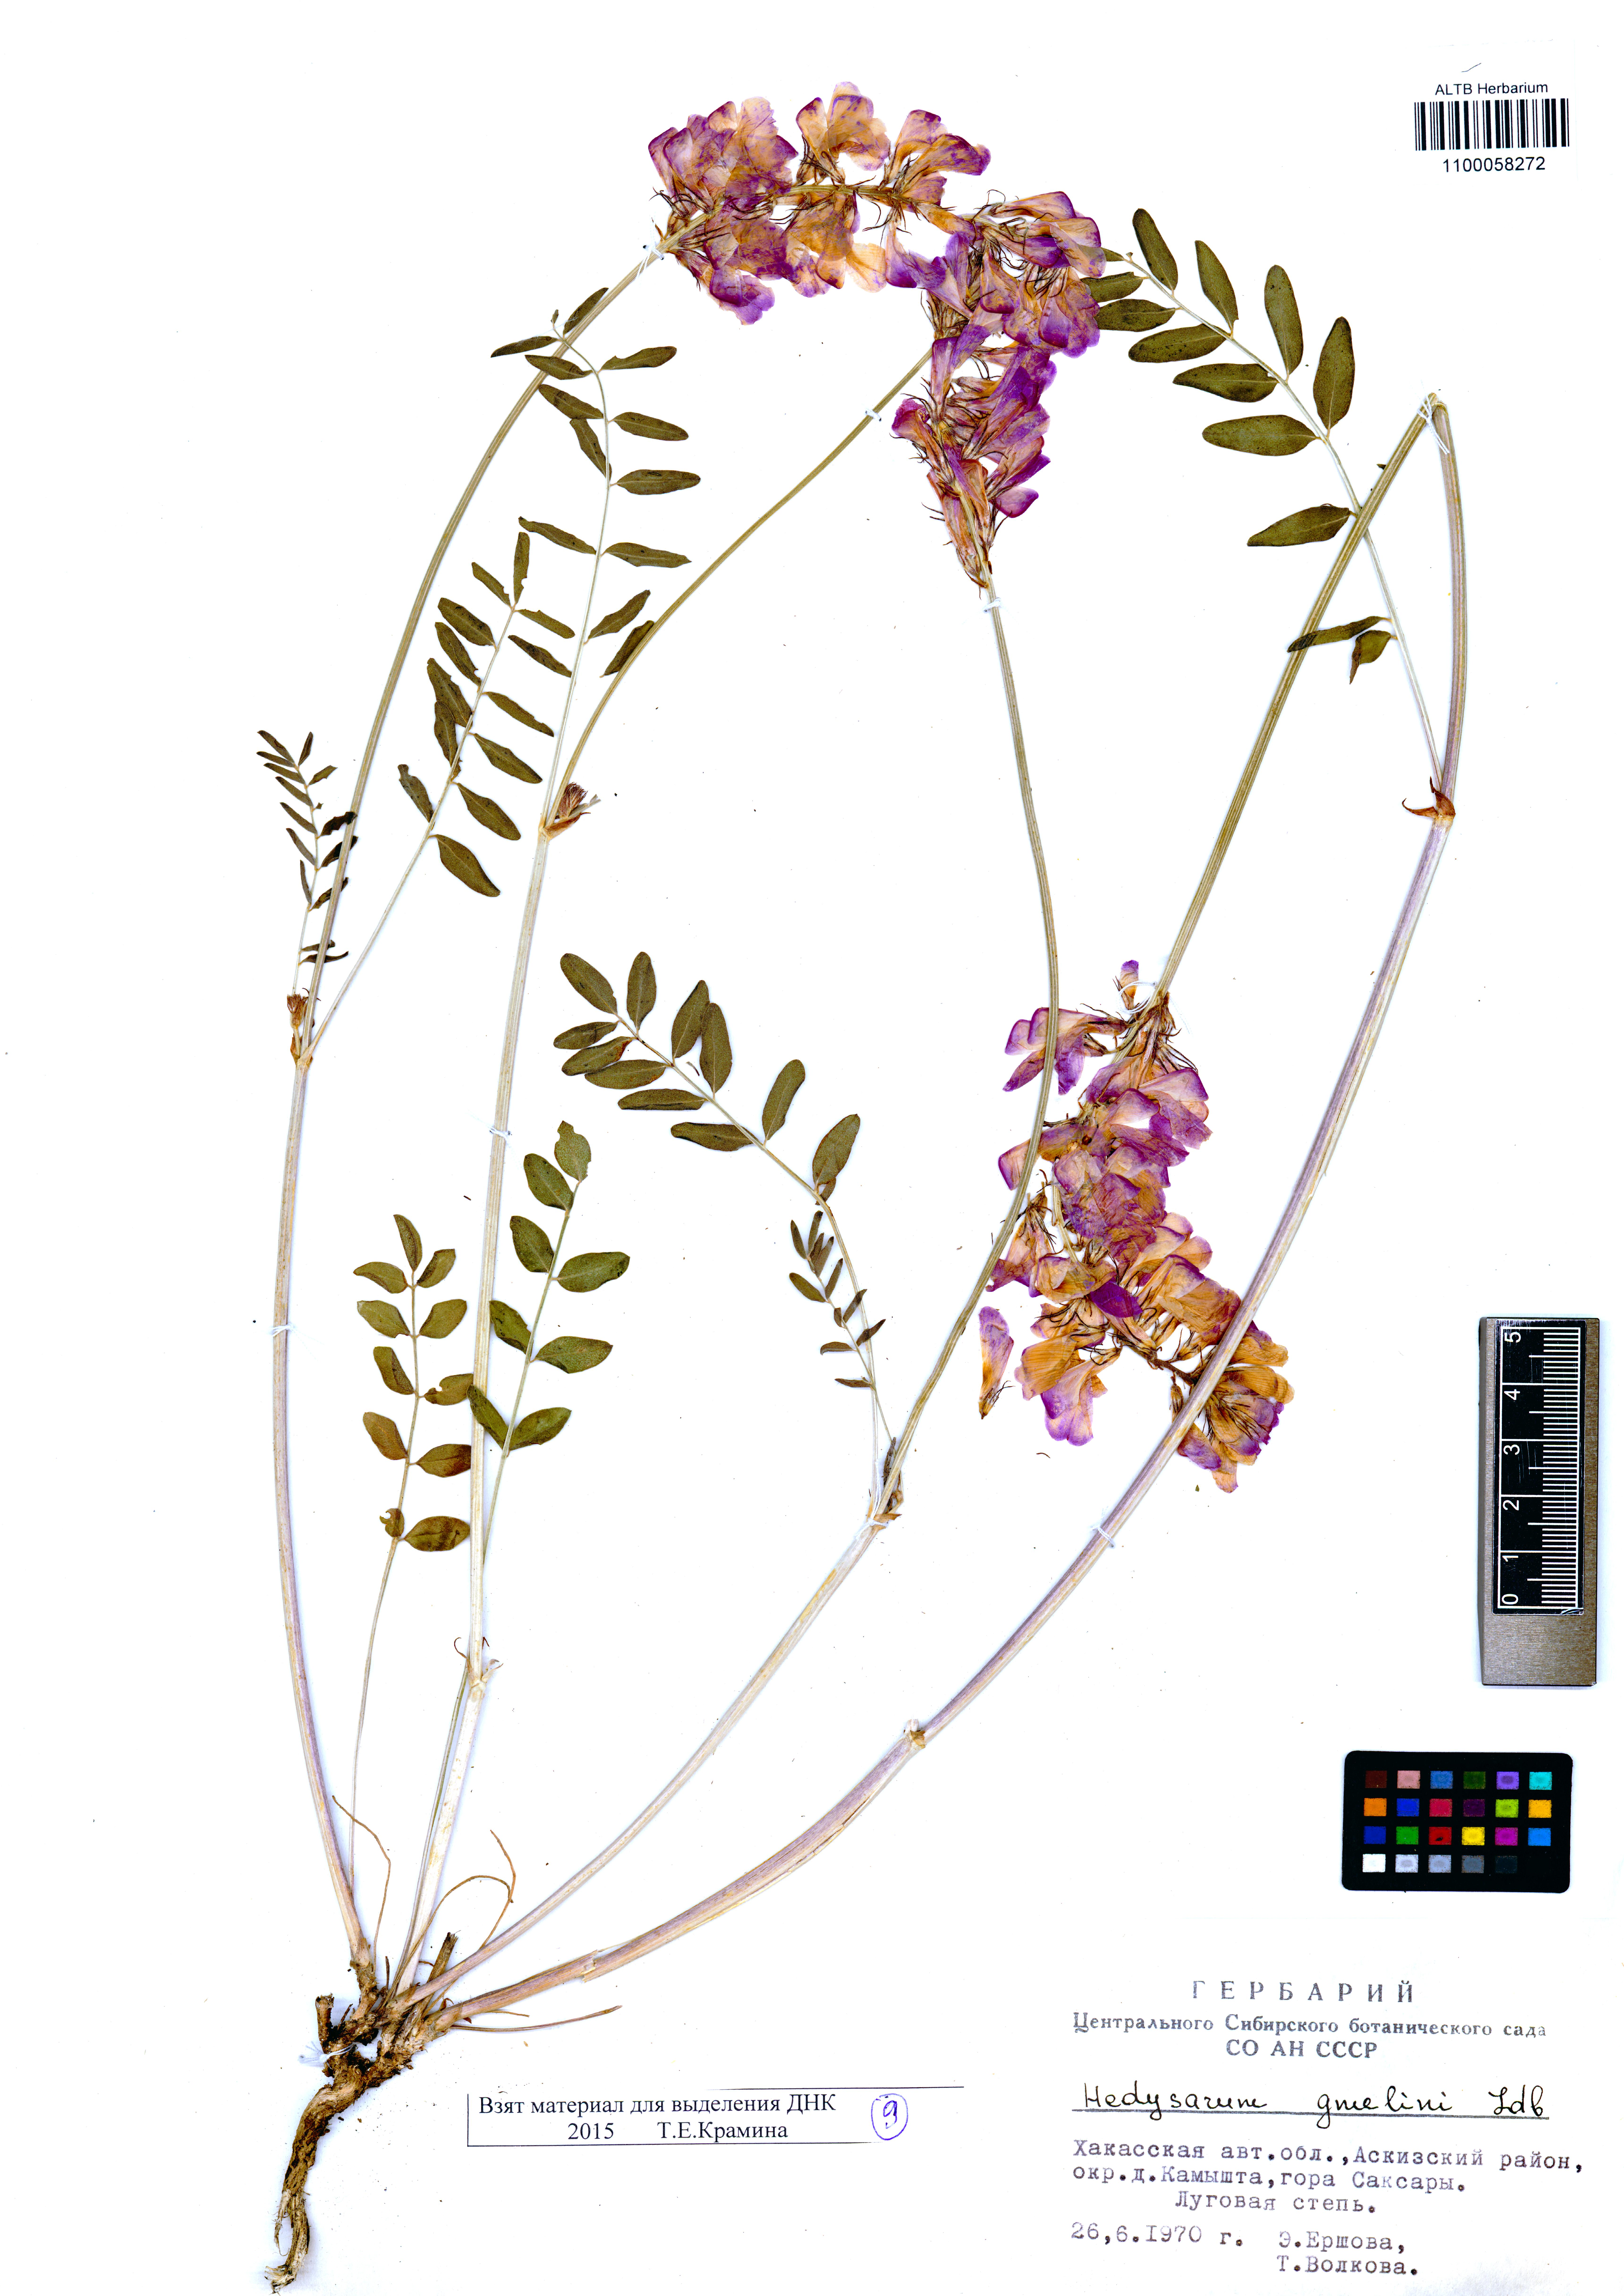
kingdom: Plantae
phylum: Tracheophyta
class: Magnoliopsida
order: Fabales
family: Fabaceae
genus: Hedysarum
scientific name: Hedysarum gmelinii
